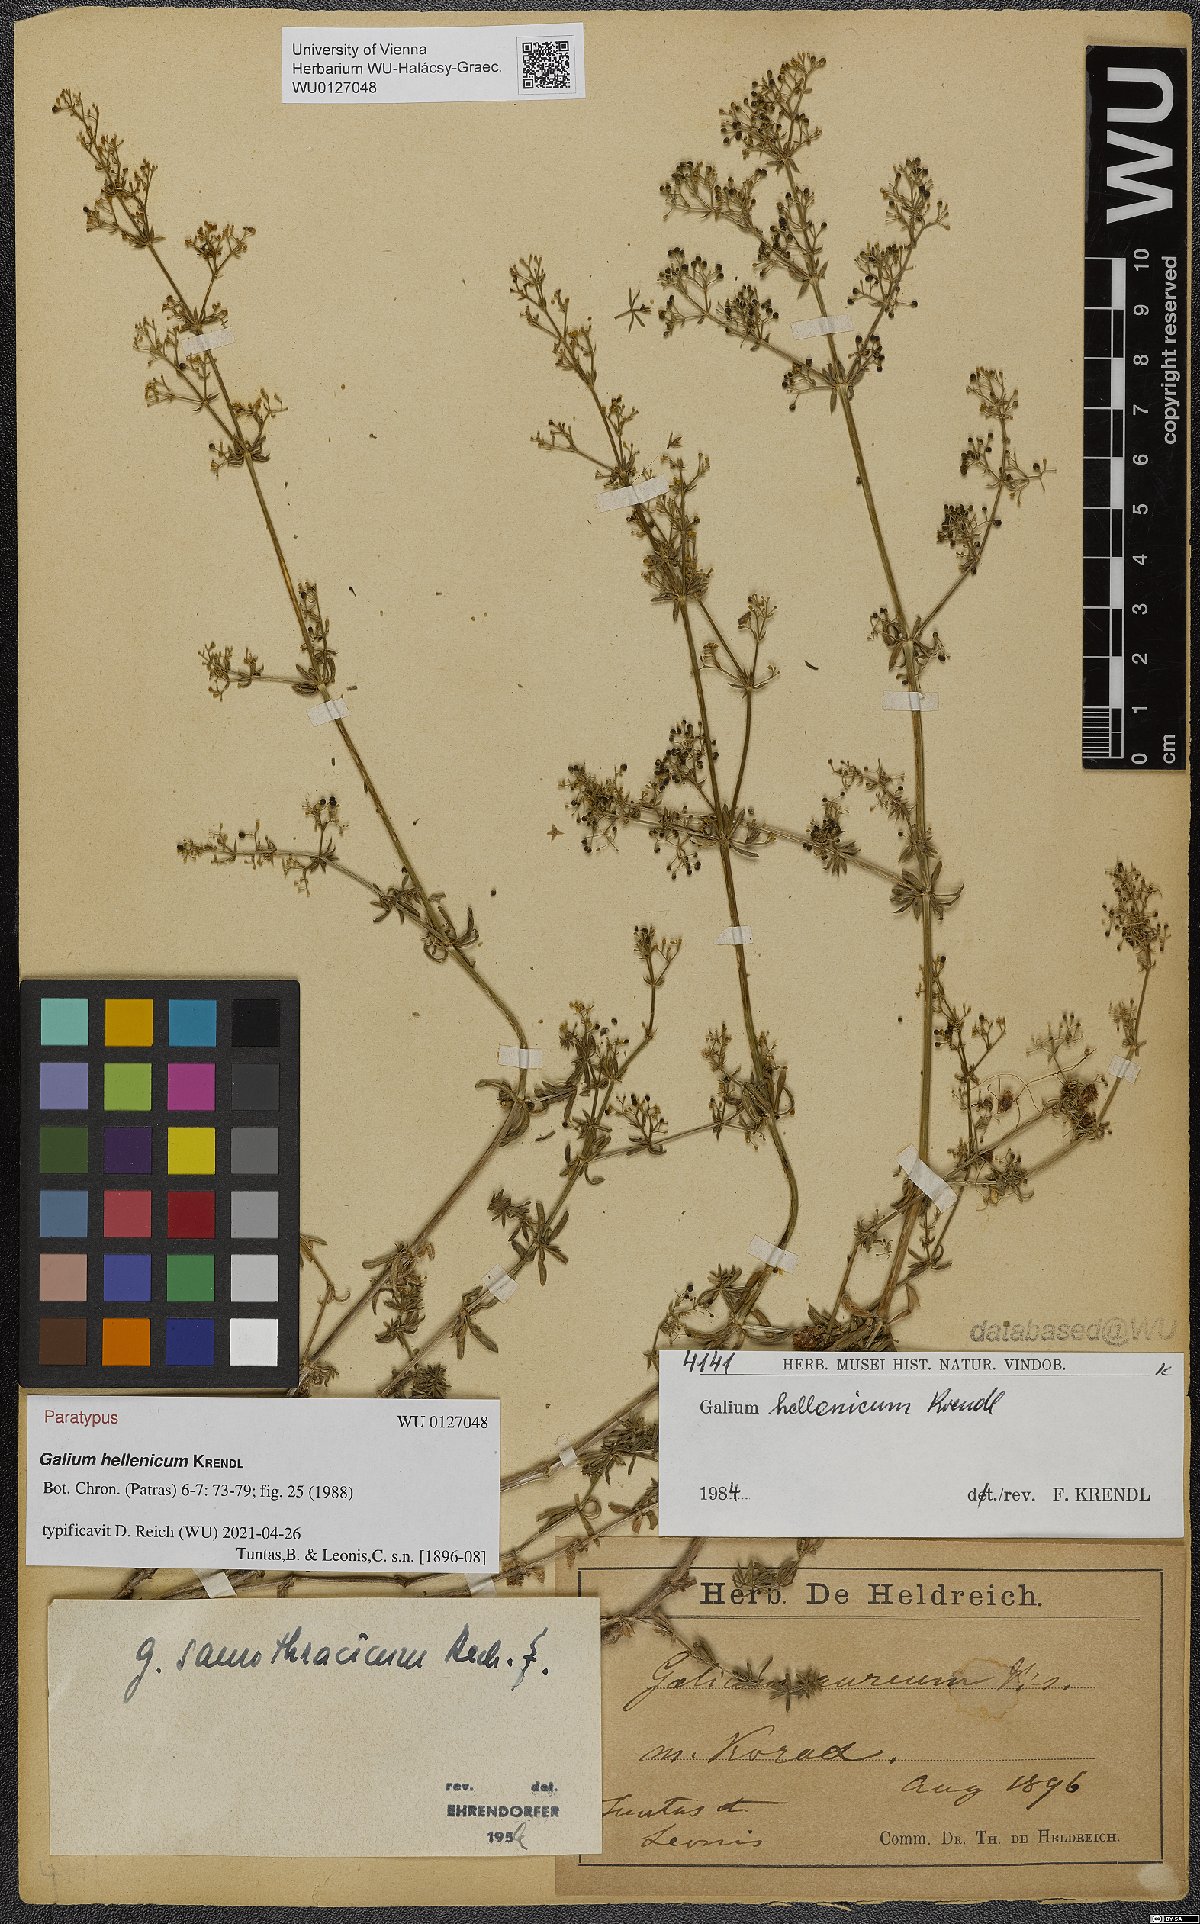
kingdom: Plantae
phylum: Tracheophyta
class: Magnoliopsida
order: Gentianales
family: Rubiaceae
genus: Galium
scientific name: Galium hellenicum
